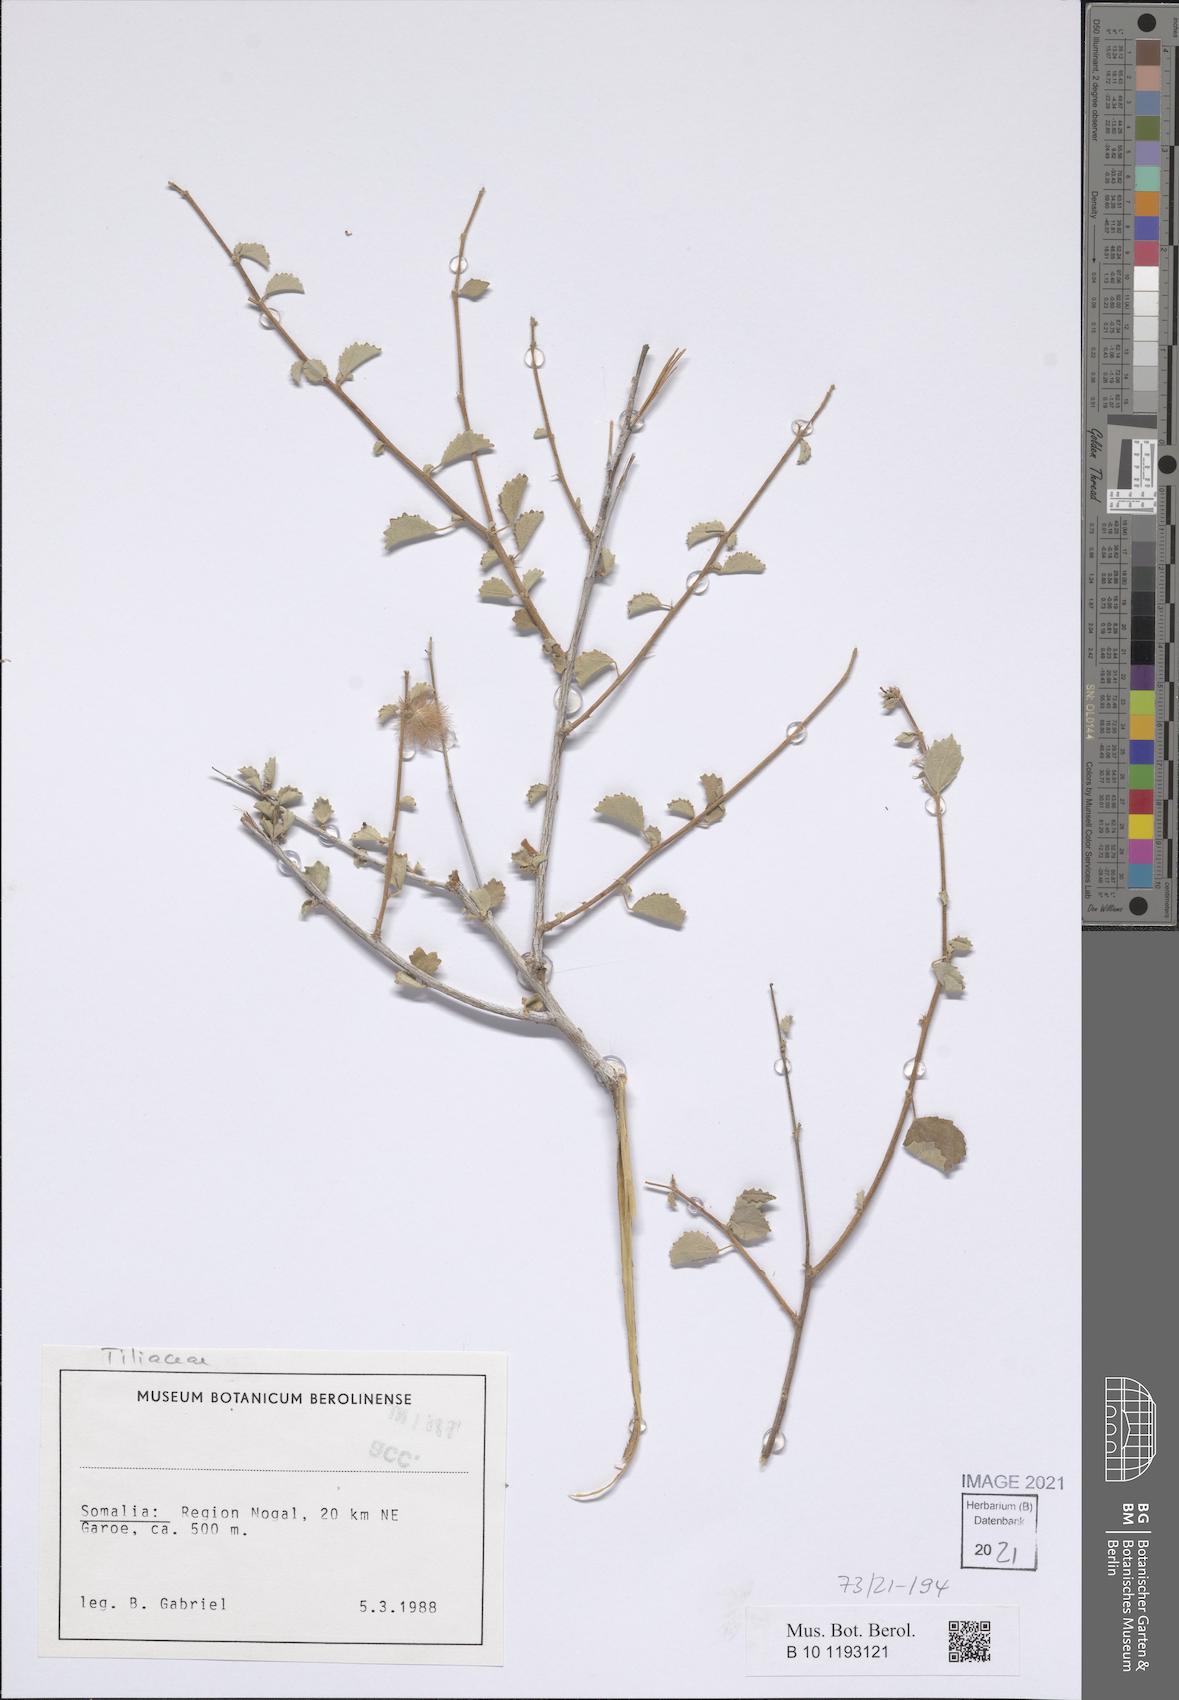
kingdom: Plantae
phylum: Tracheophyta
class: Magnoliopsida
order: Malvales
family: Malvaceae
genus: Triumfetta
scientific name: Triumfetta actinocarpa
